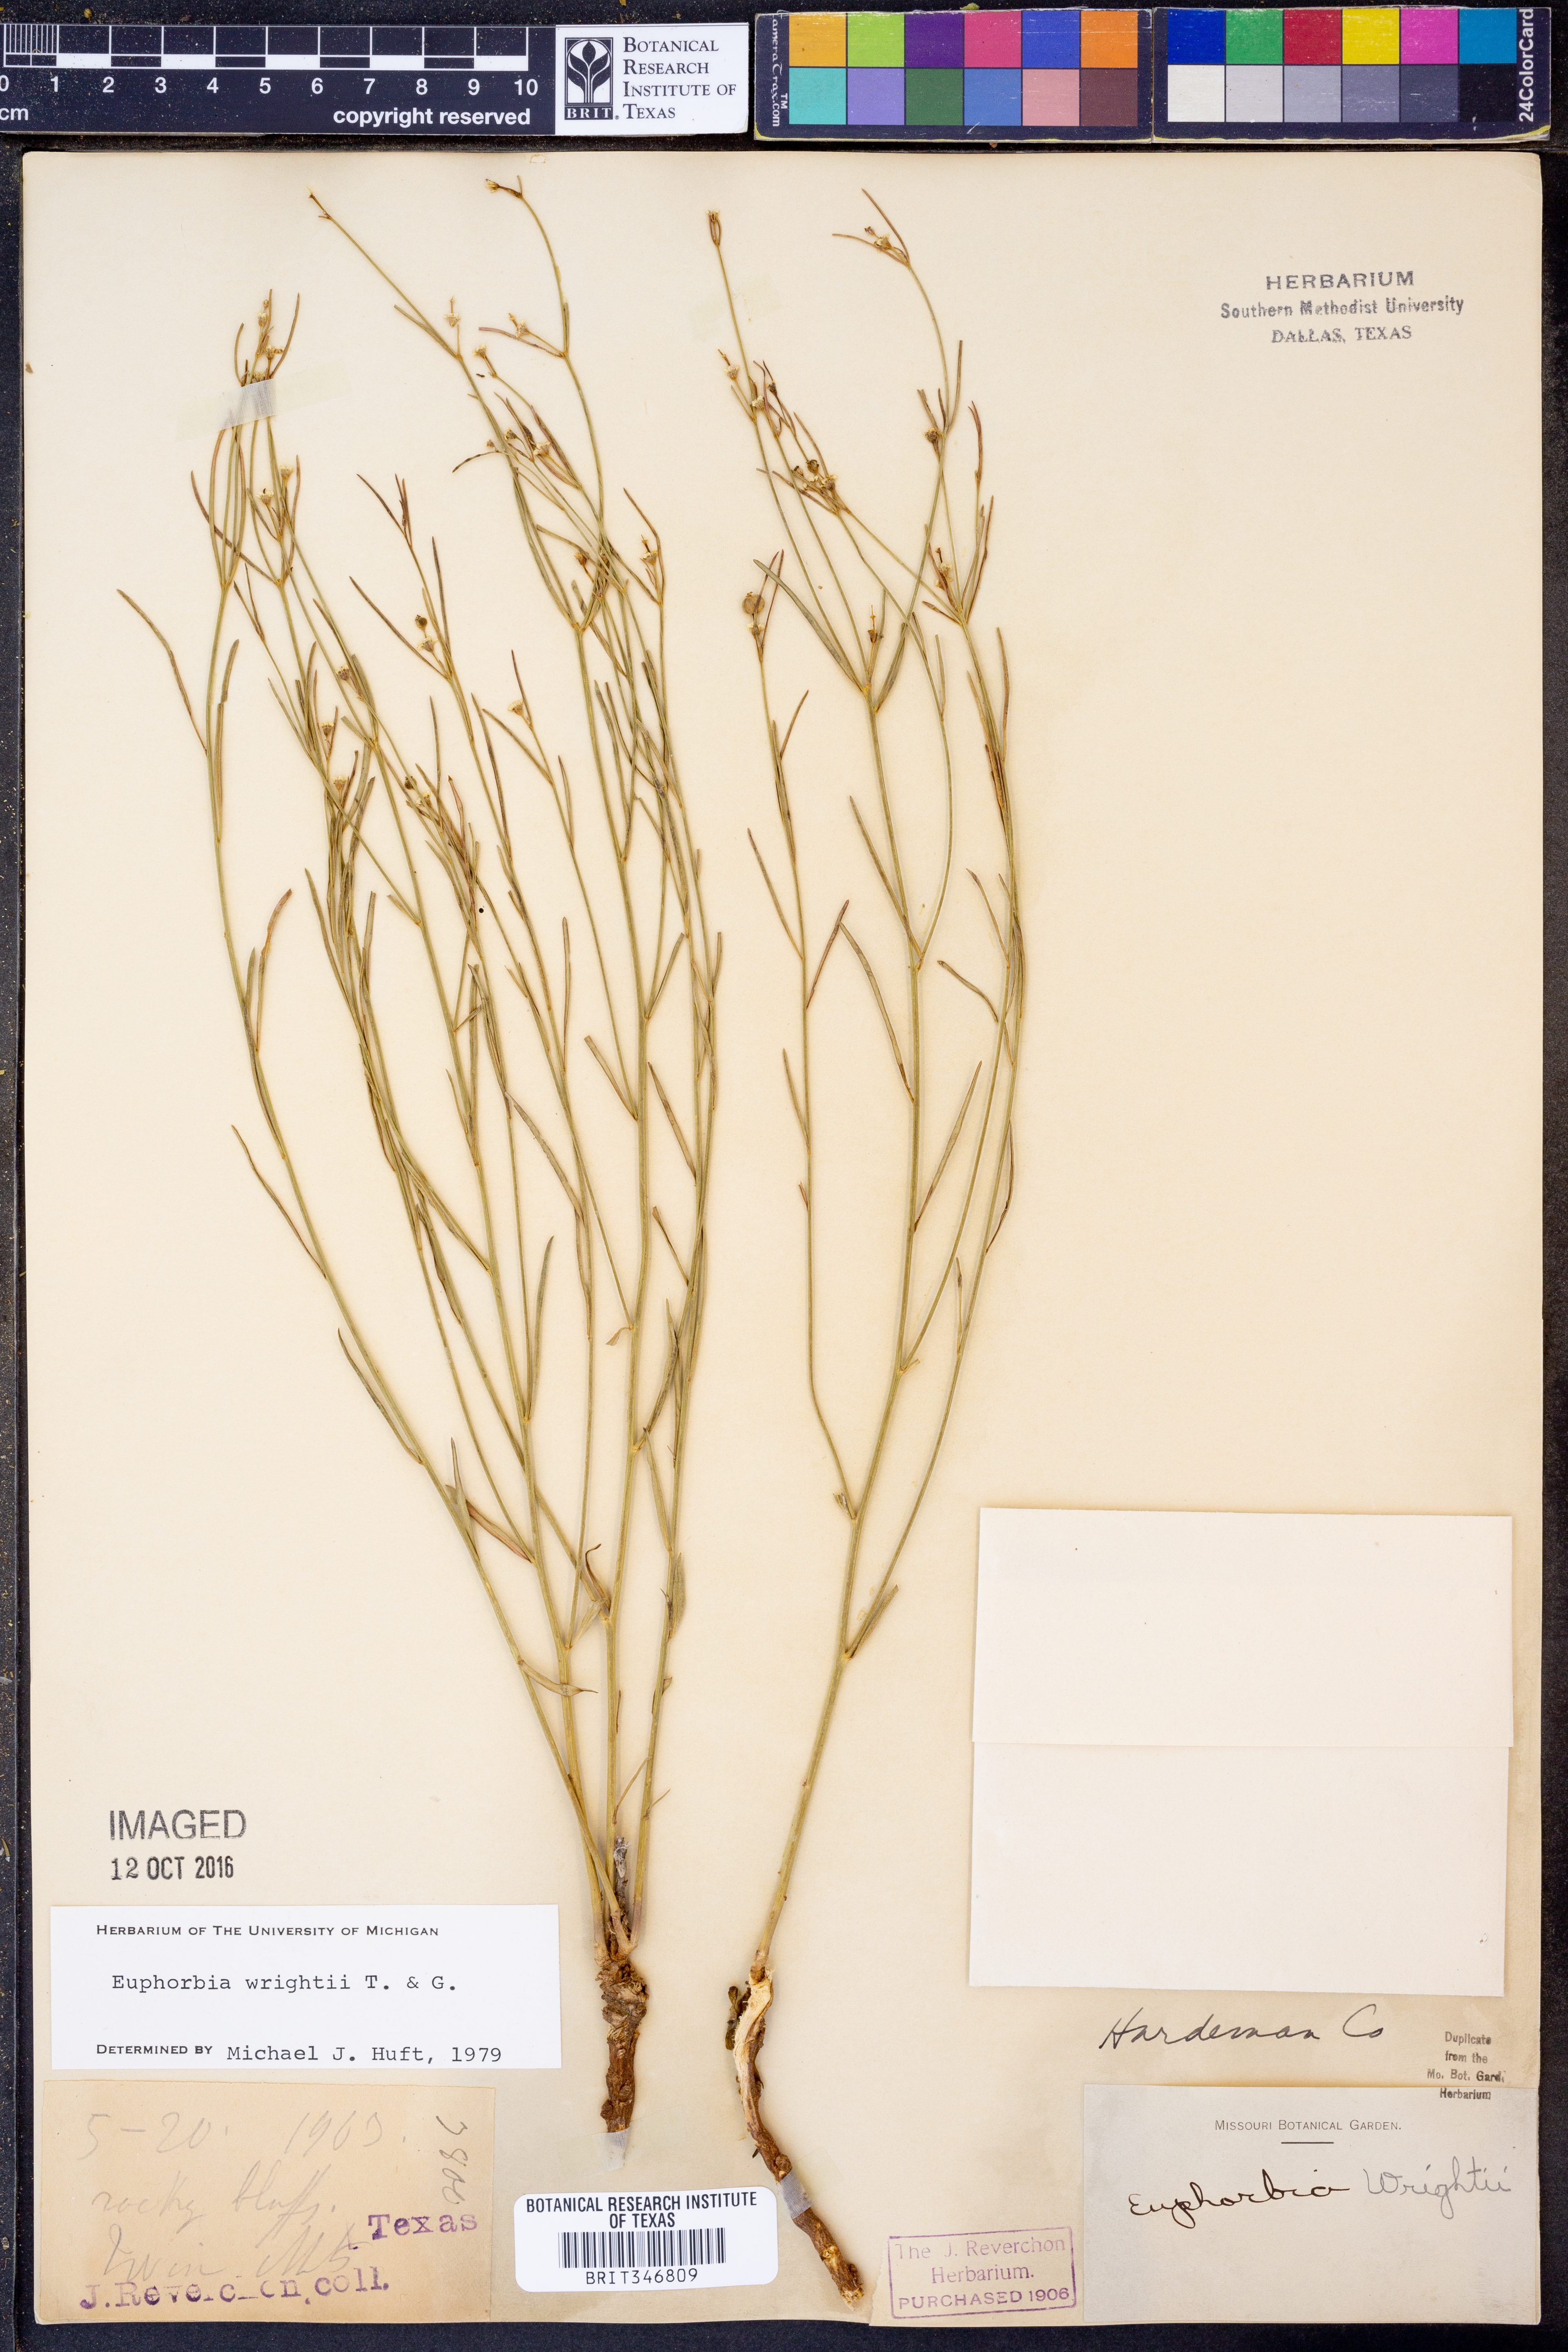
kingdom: Plantae
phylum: Tracheophyta
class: Magnoliopsida
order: Malpighiales
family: Euphorbiaceae
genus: Euphorbia
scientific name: Euphorbia wrightii
